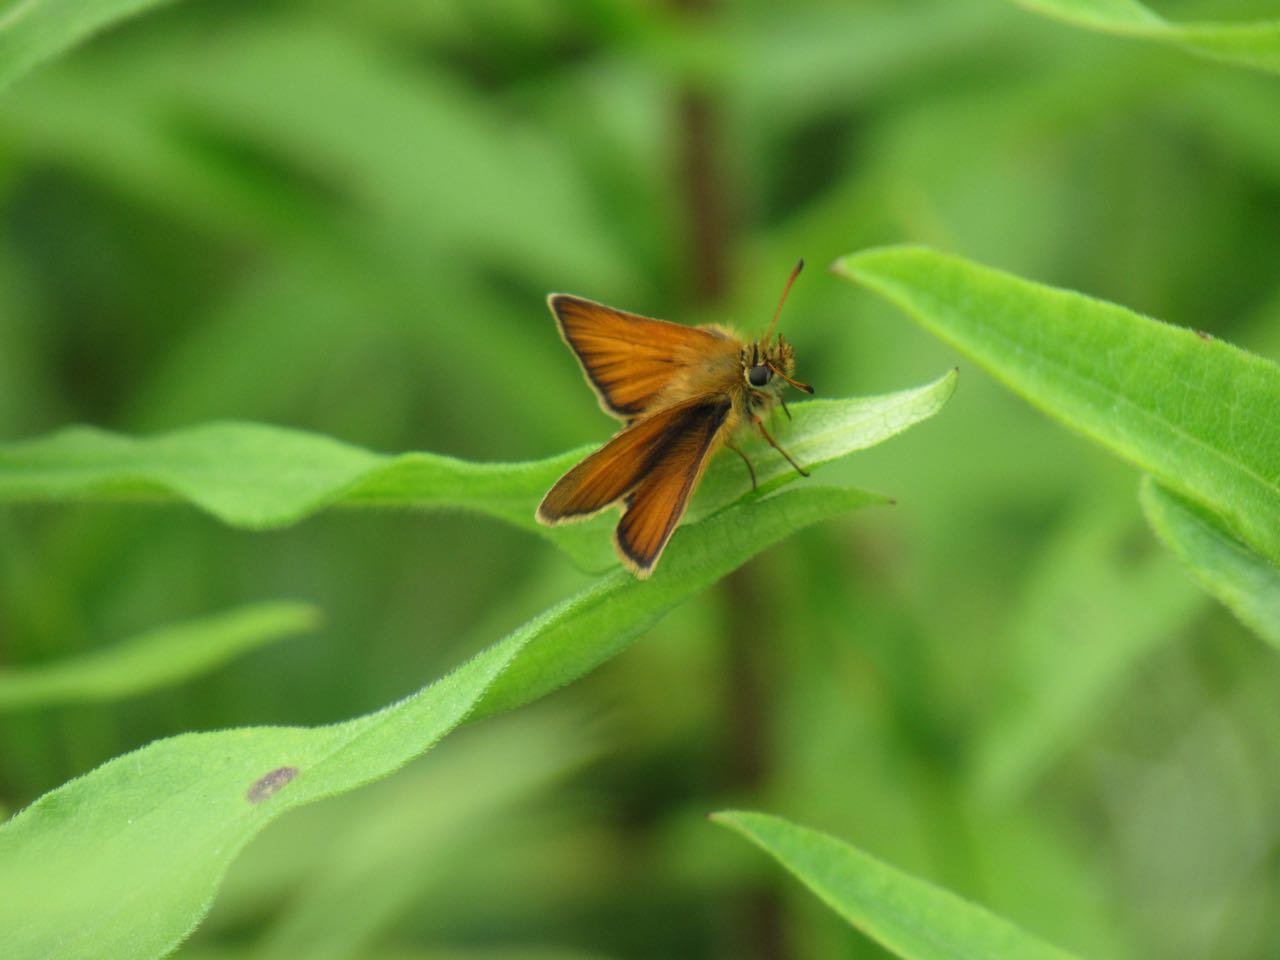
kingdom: Animalia
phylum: Arthropoda
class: Insecta
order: Lepidoptera
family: Hesperiidae
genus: Thymelicus
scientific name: Thymelicus lineola
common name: European Skipper
